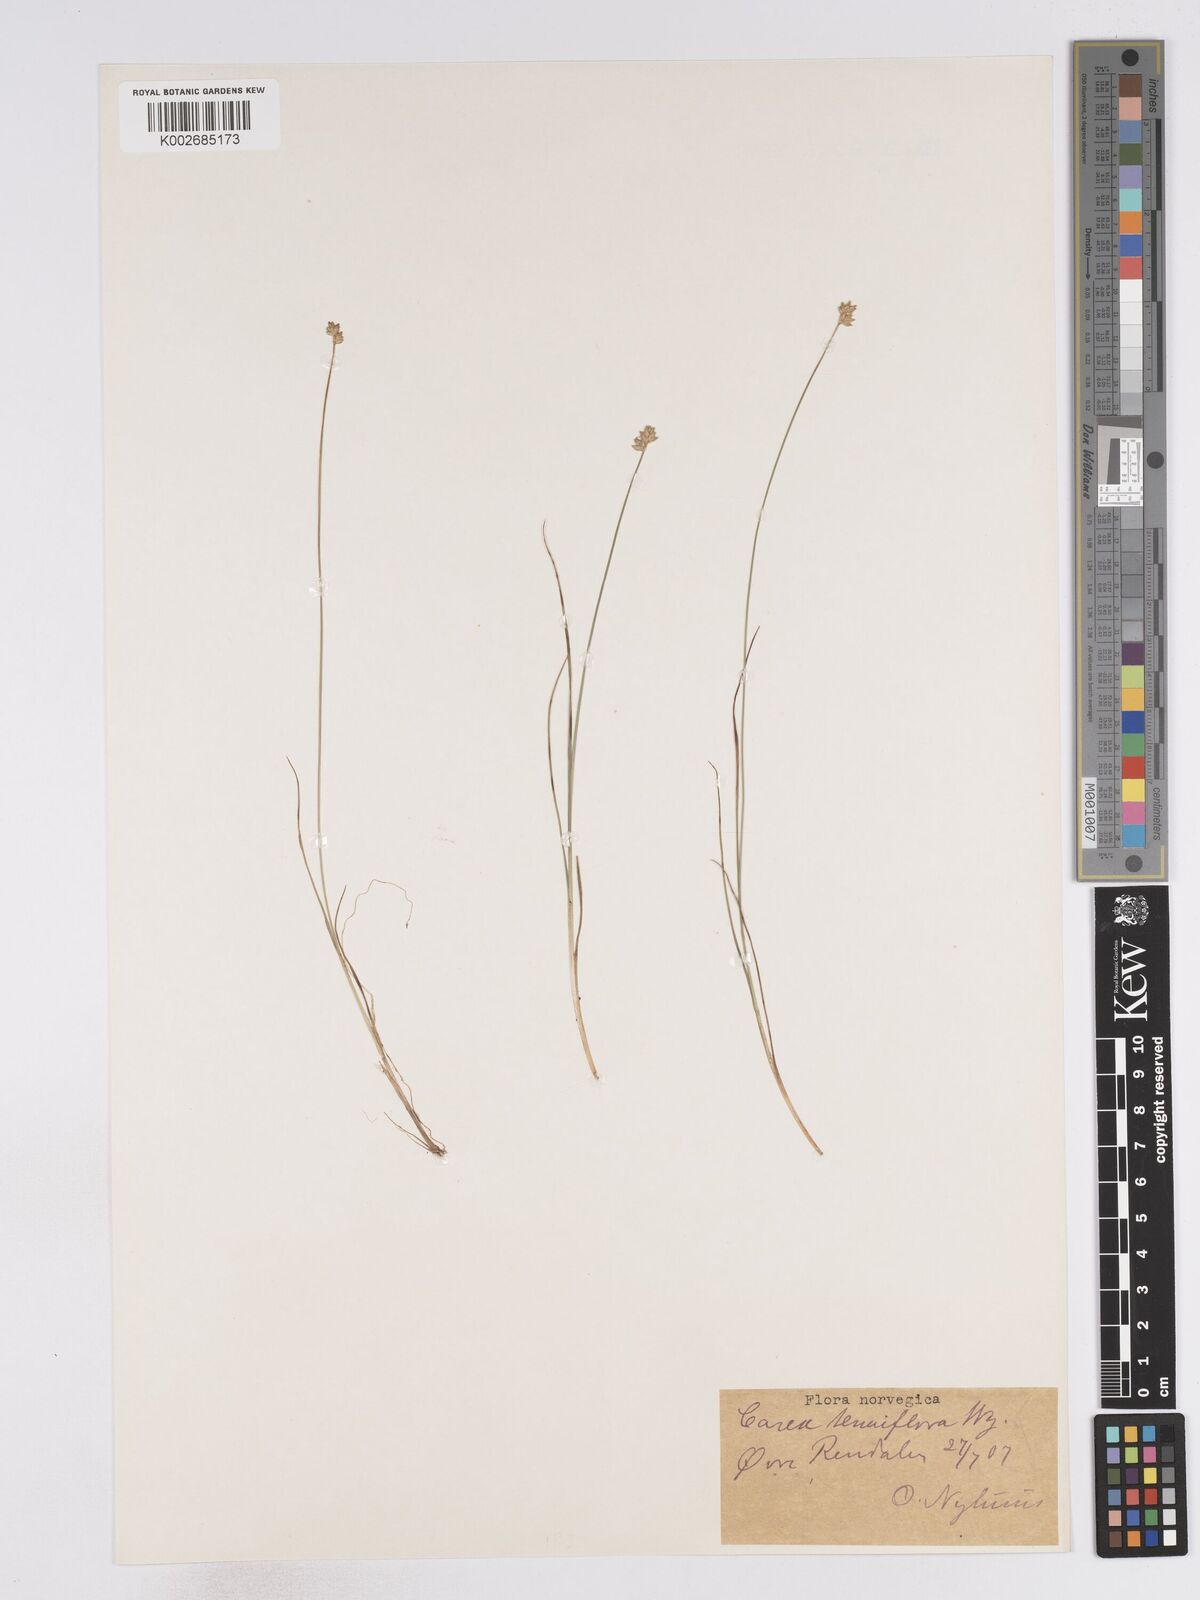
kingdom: Plantae
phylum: Tracheophyta
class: Liliopsida
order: Poales
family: Cyperaceae
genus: Carex
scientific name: Carex tenuiflora
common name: Sparse-flowered sedge
